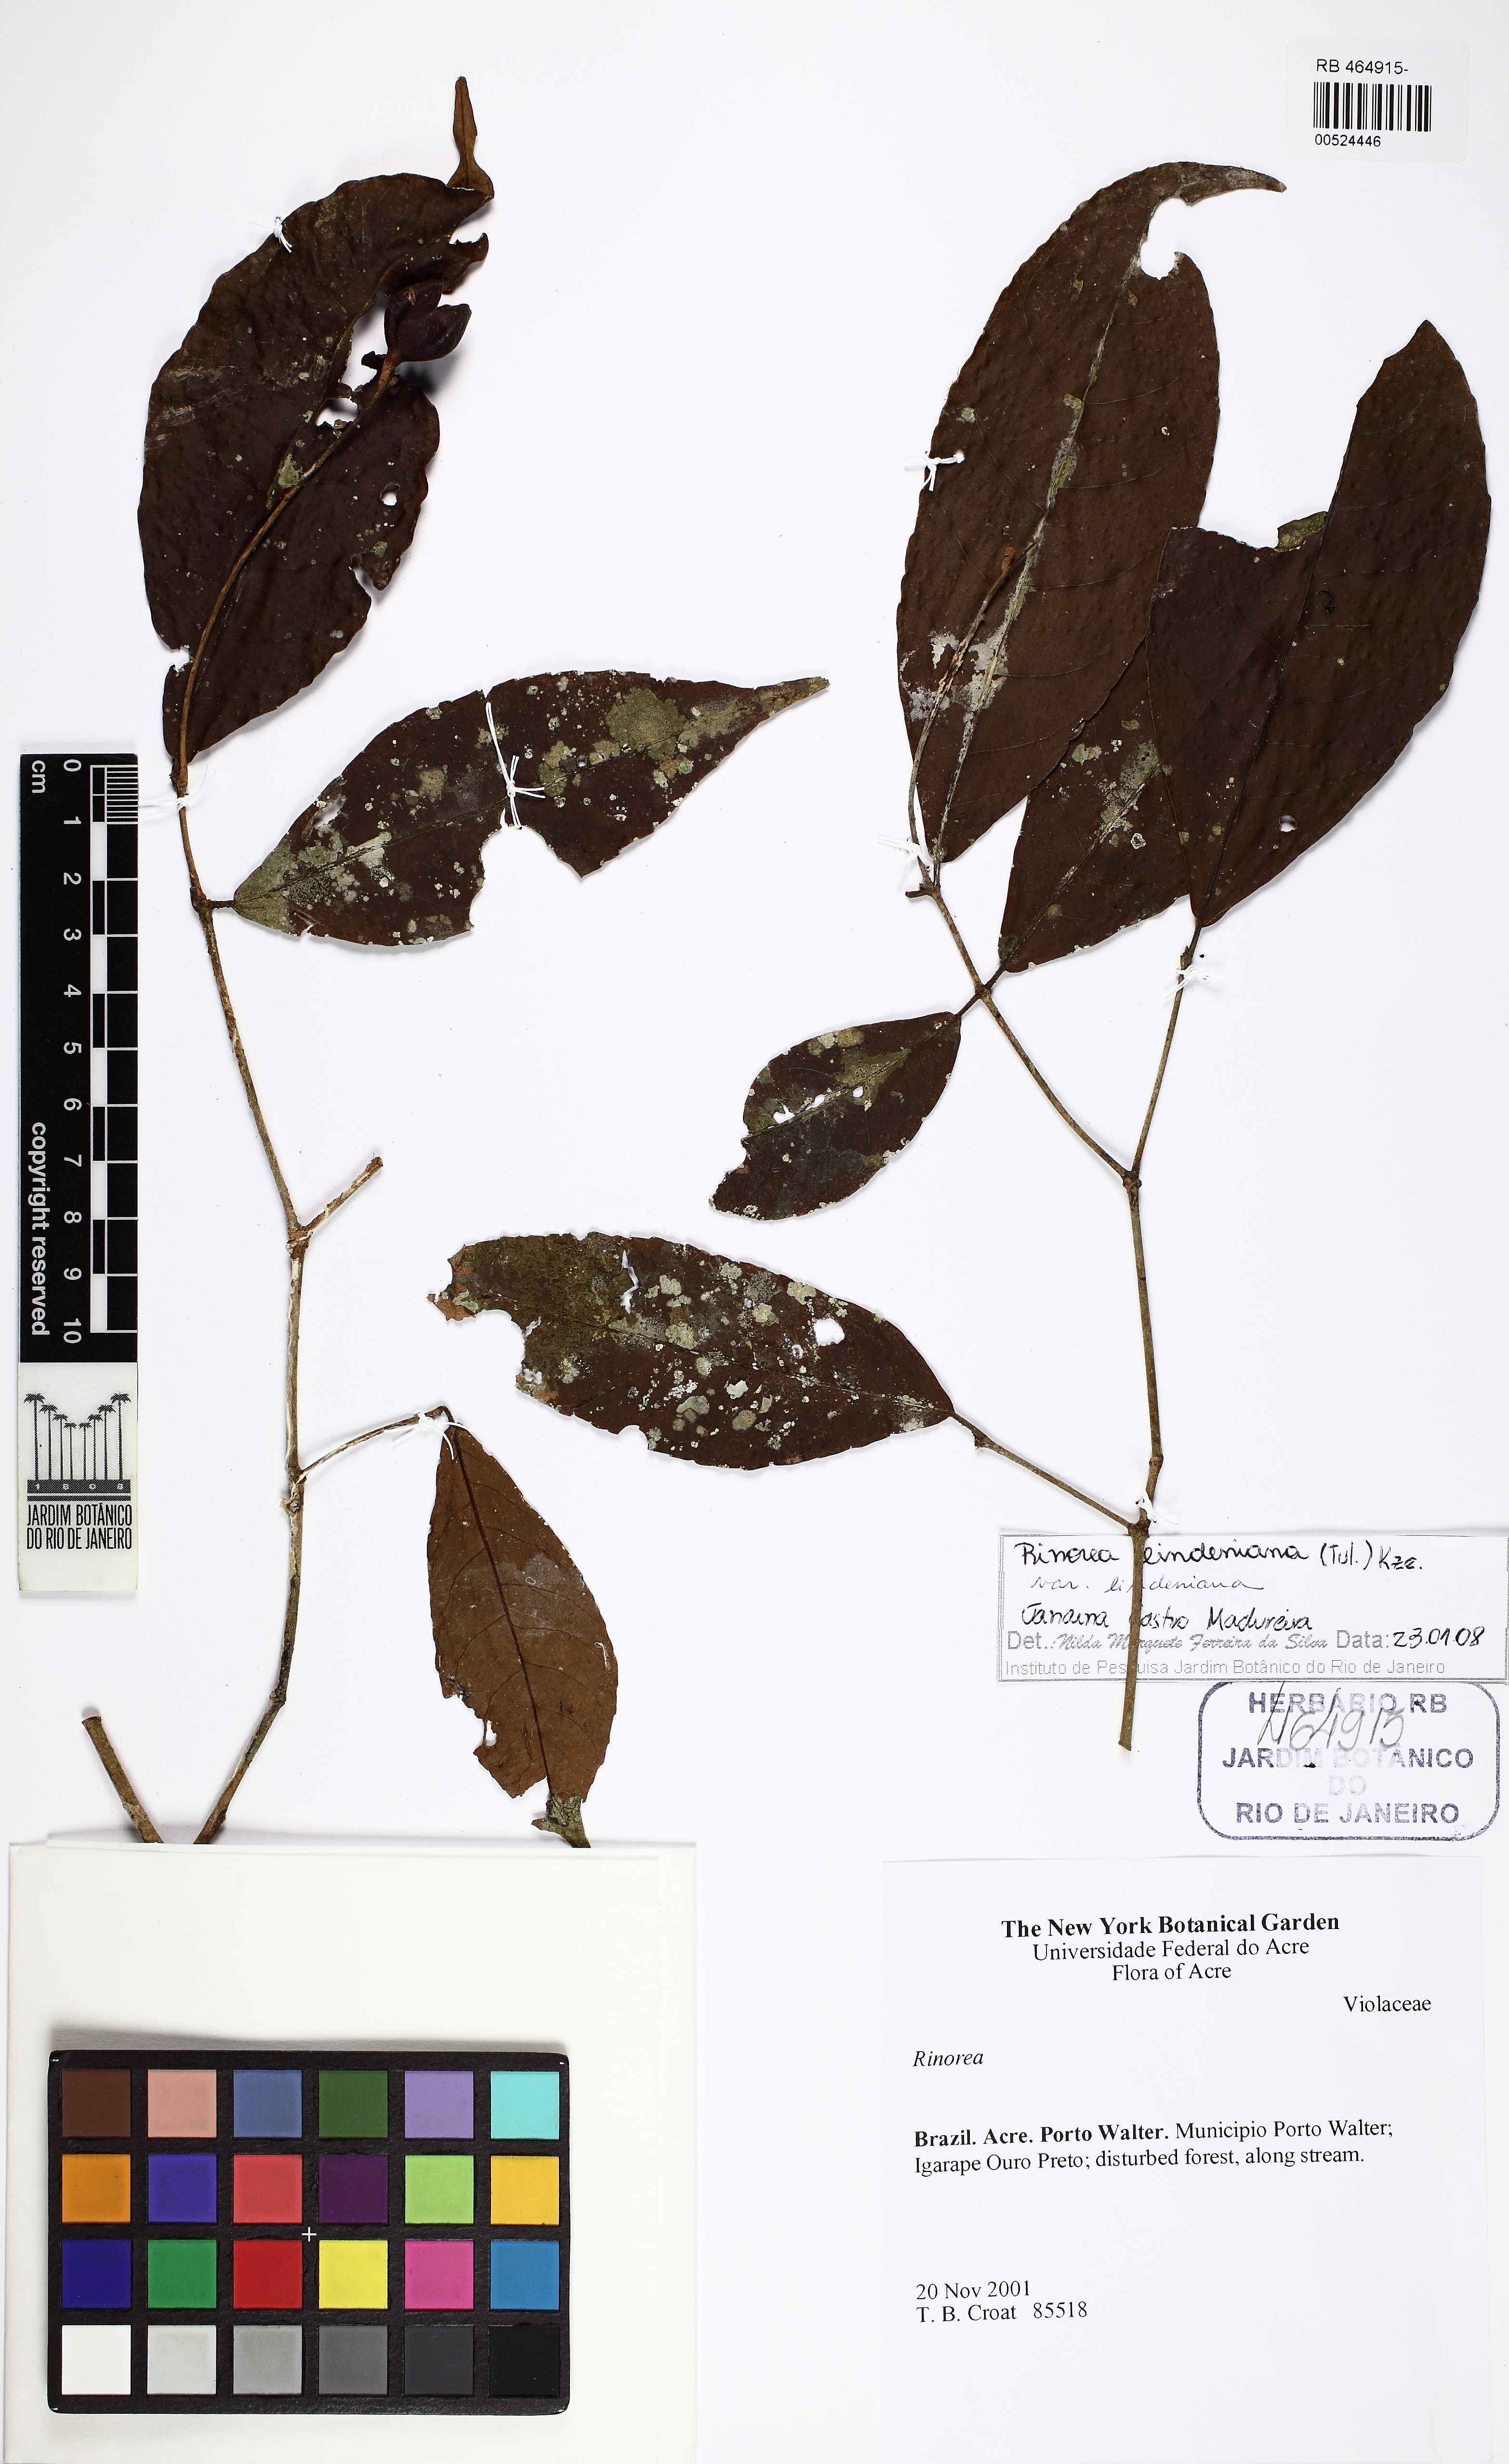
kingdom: Plantae
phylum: Tracheophyta
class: Magnoliopsida
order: Malpighiales
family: Violaceae
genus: Rinorea
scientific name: Rinorea lindeniana
